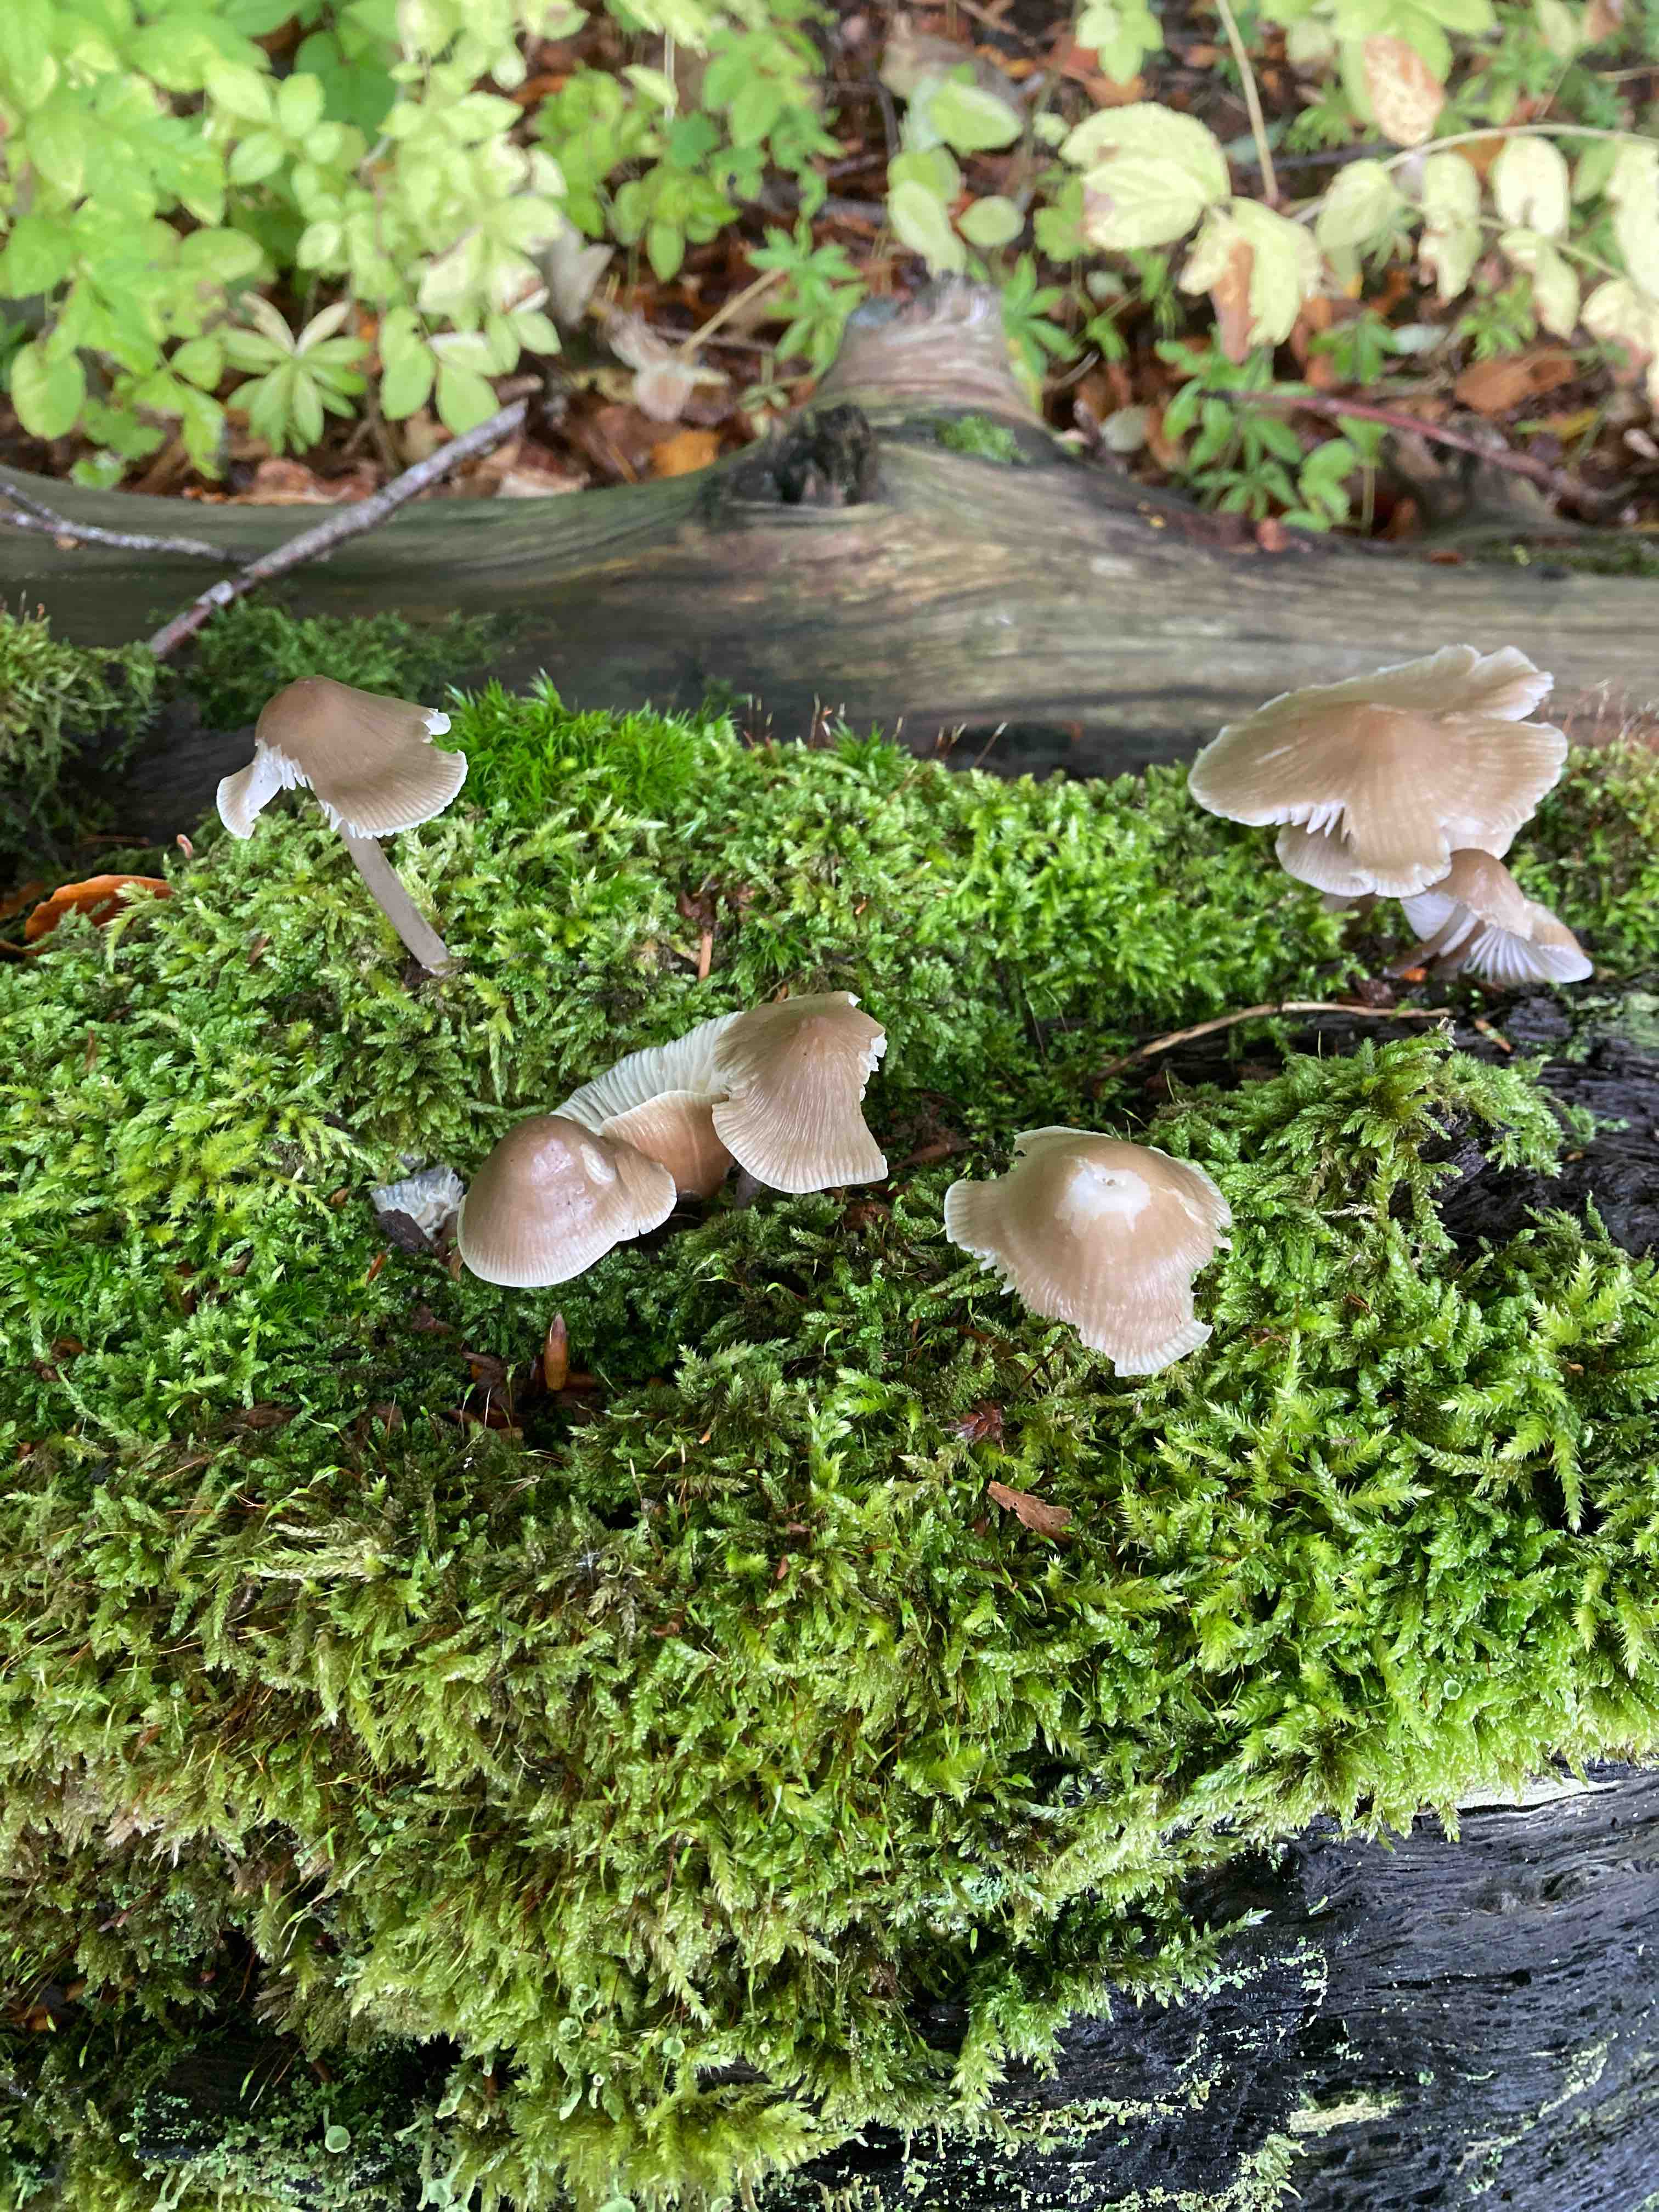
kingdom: Fungi
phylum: Basidiomycota
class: Agaricomycetes
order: Agaricales
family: Mycenaceae
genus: Mycena
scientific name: Mycena galericulata
